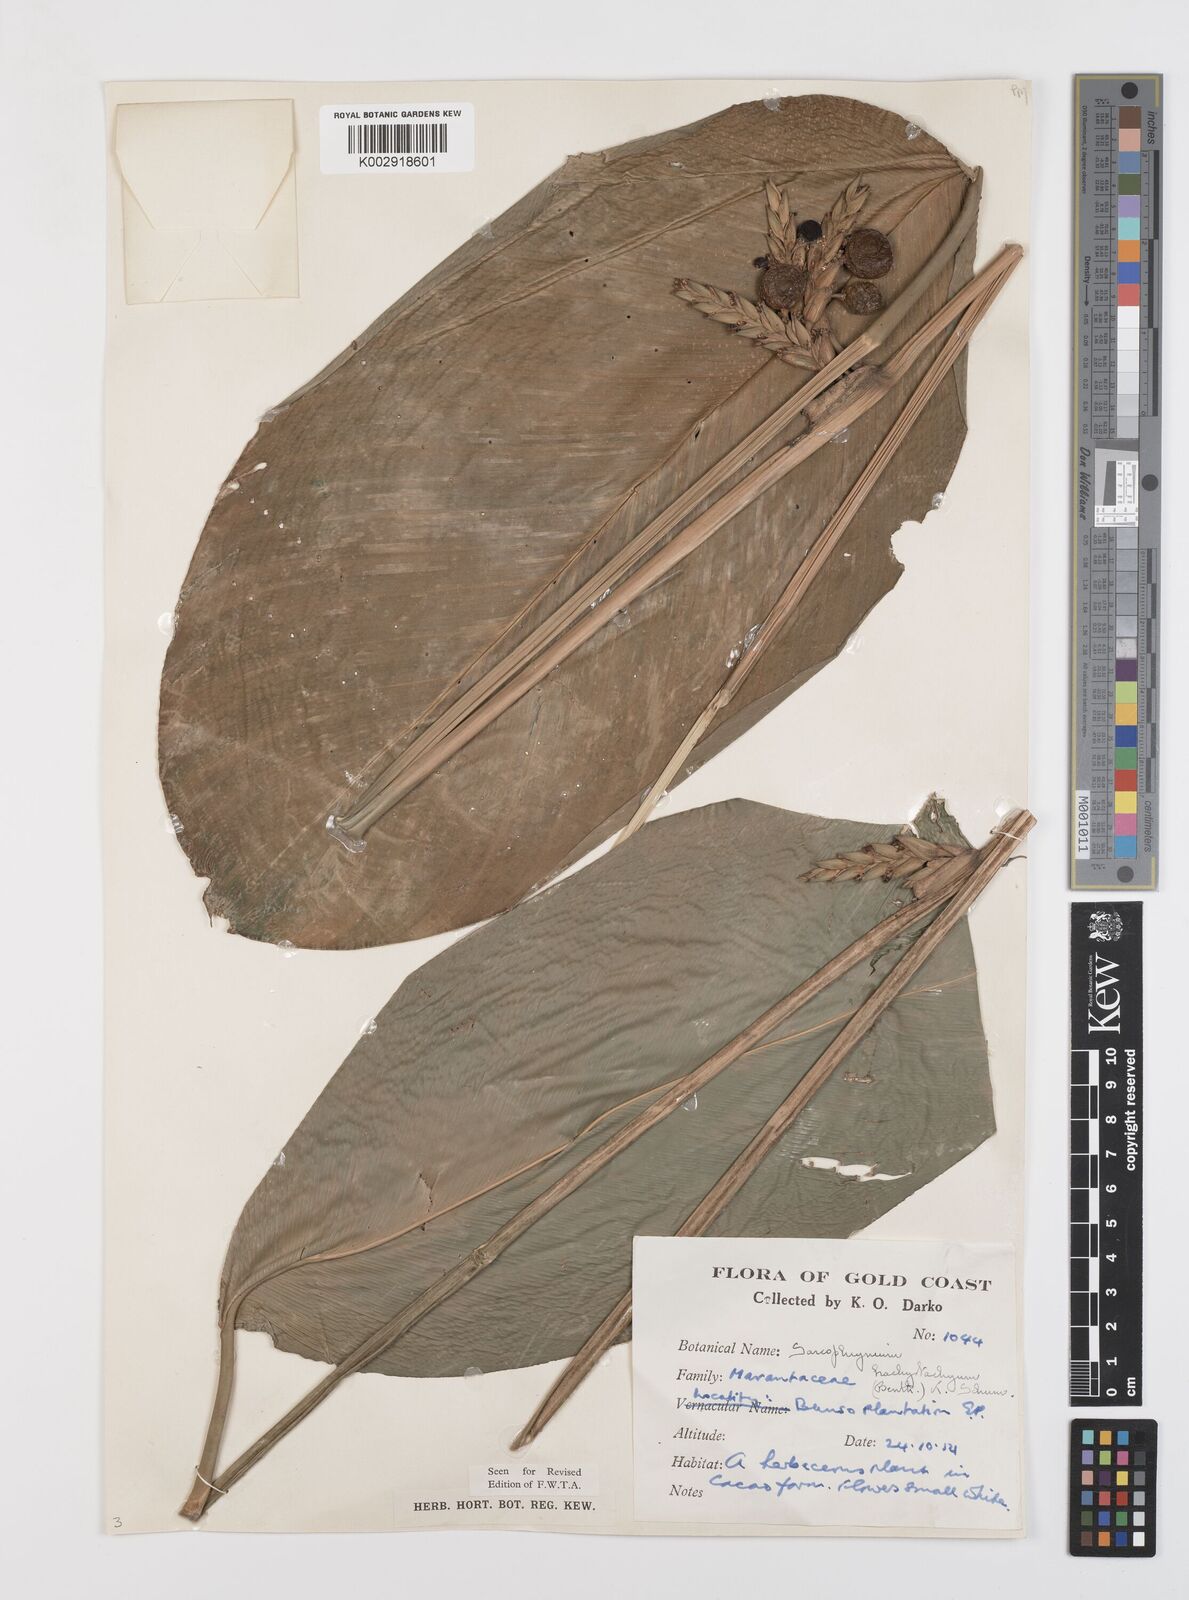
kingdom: Plantae
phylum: Tracheophyta
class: Liliopsida
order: Zingiberales
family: Marantaceae
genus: Sarcophrynium
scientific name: Sarcophrynium brachystachyum
